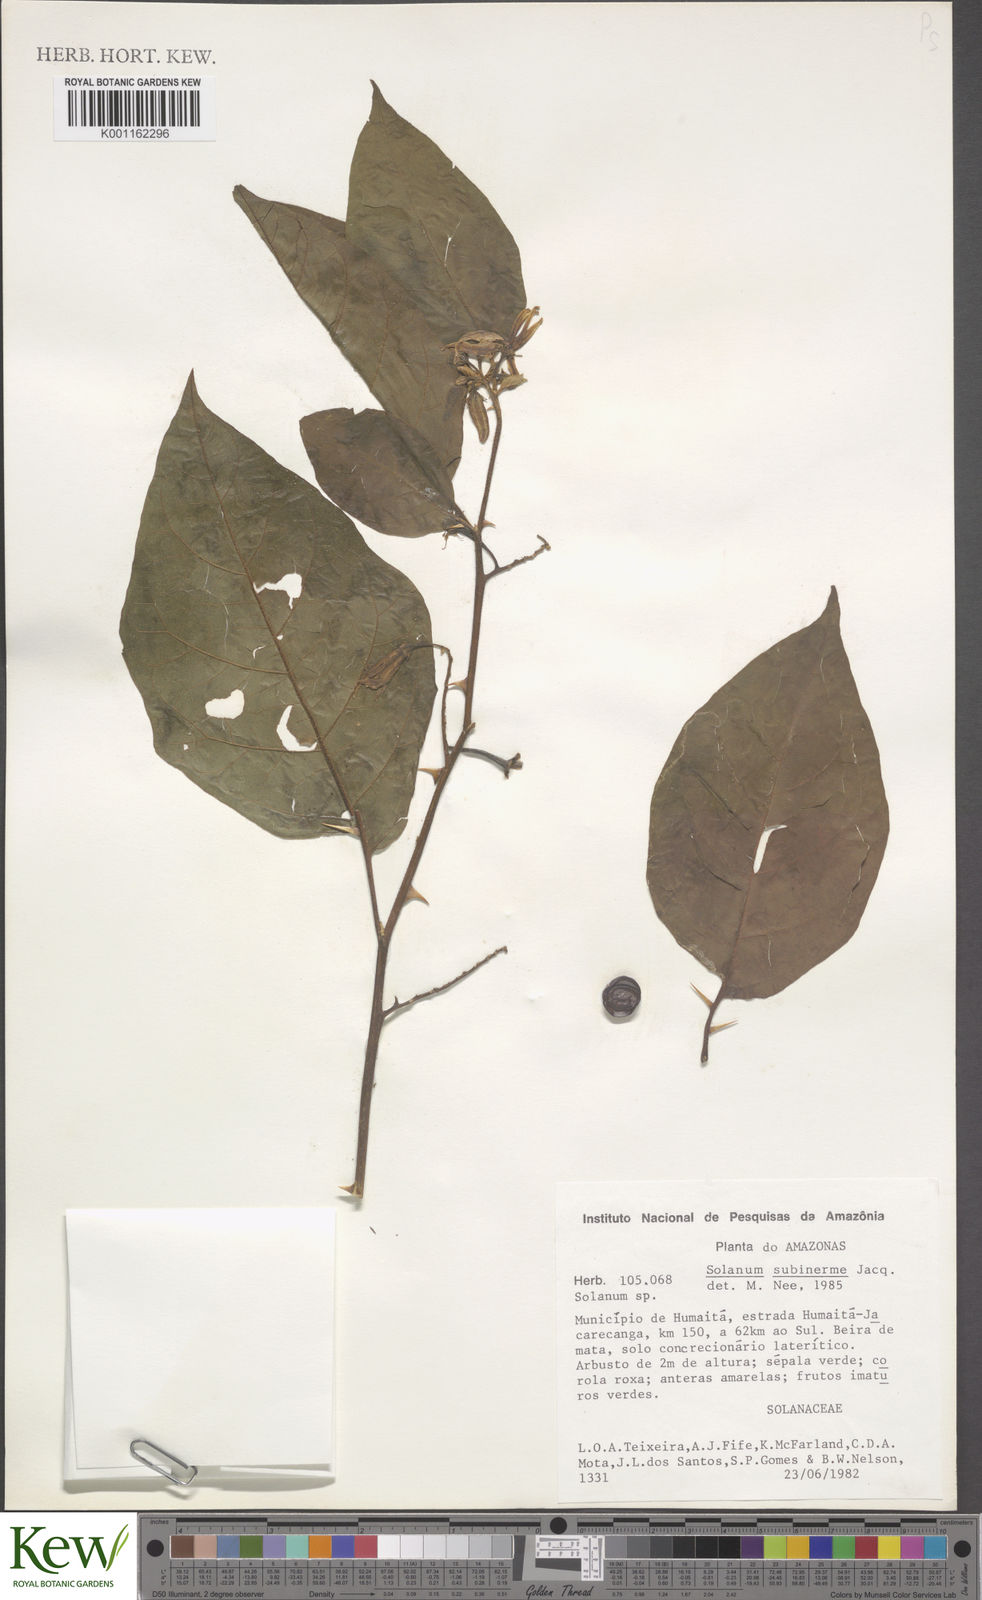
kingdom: Plantae
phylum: Tracheophyta
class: Magnoliopsida
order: Solanales
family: Solanaceae
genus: Solanum
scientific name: Solanum subinerme
